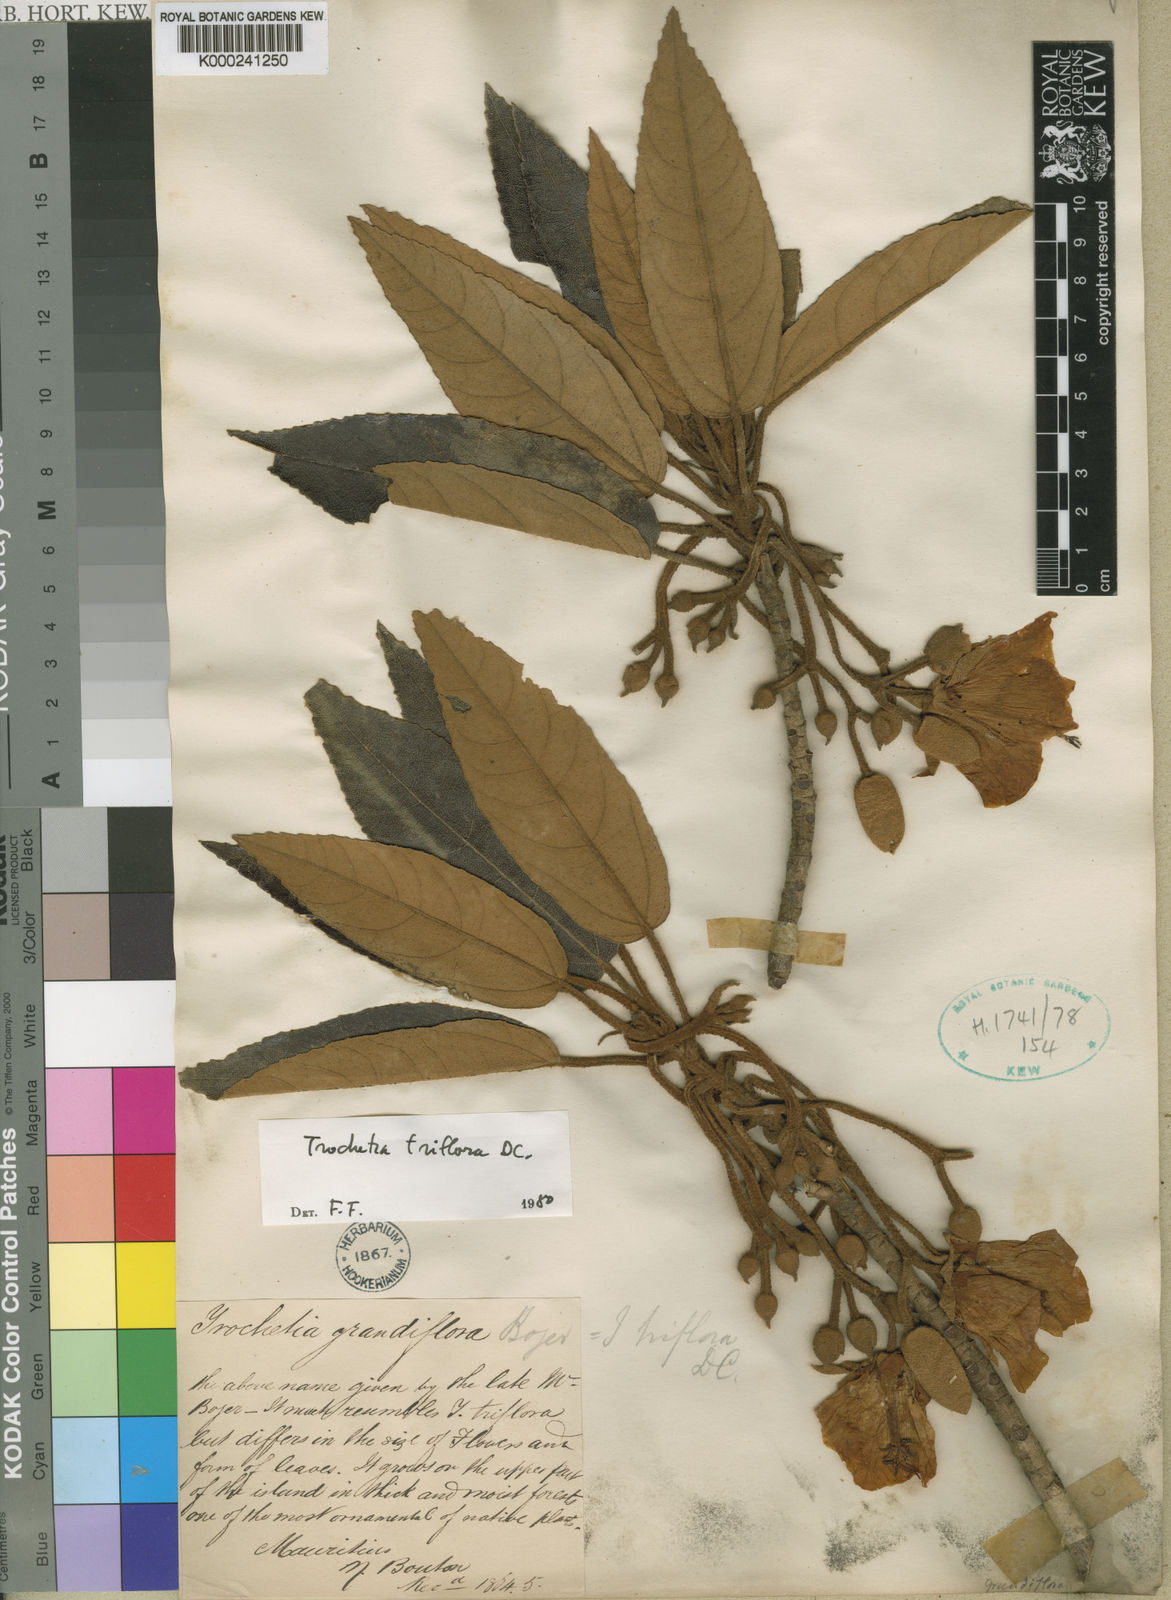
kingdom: Plantae
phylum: Tracheophyta
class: Magnoliopsida
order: Malvales
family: Malvaceae
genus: Ruizia
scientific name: Ruizia triflora
